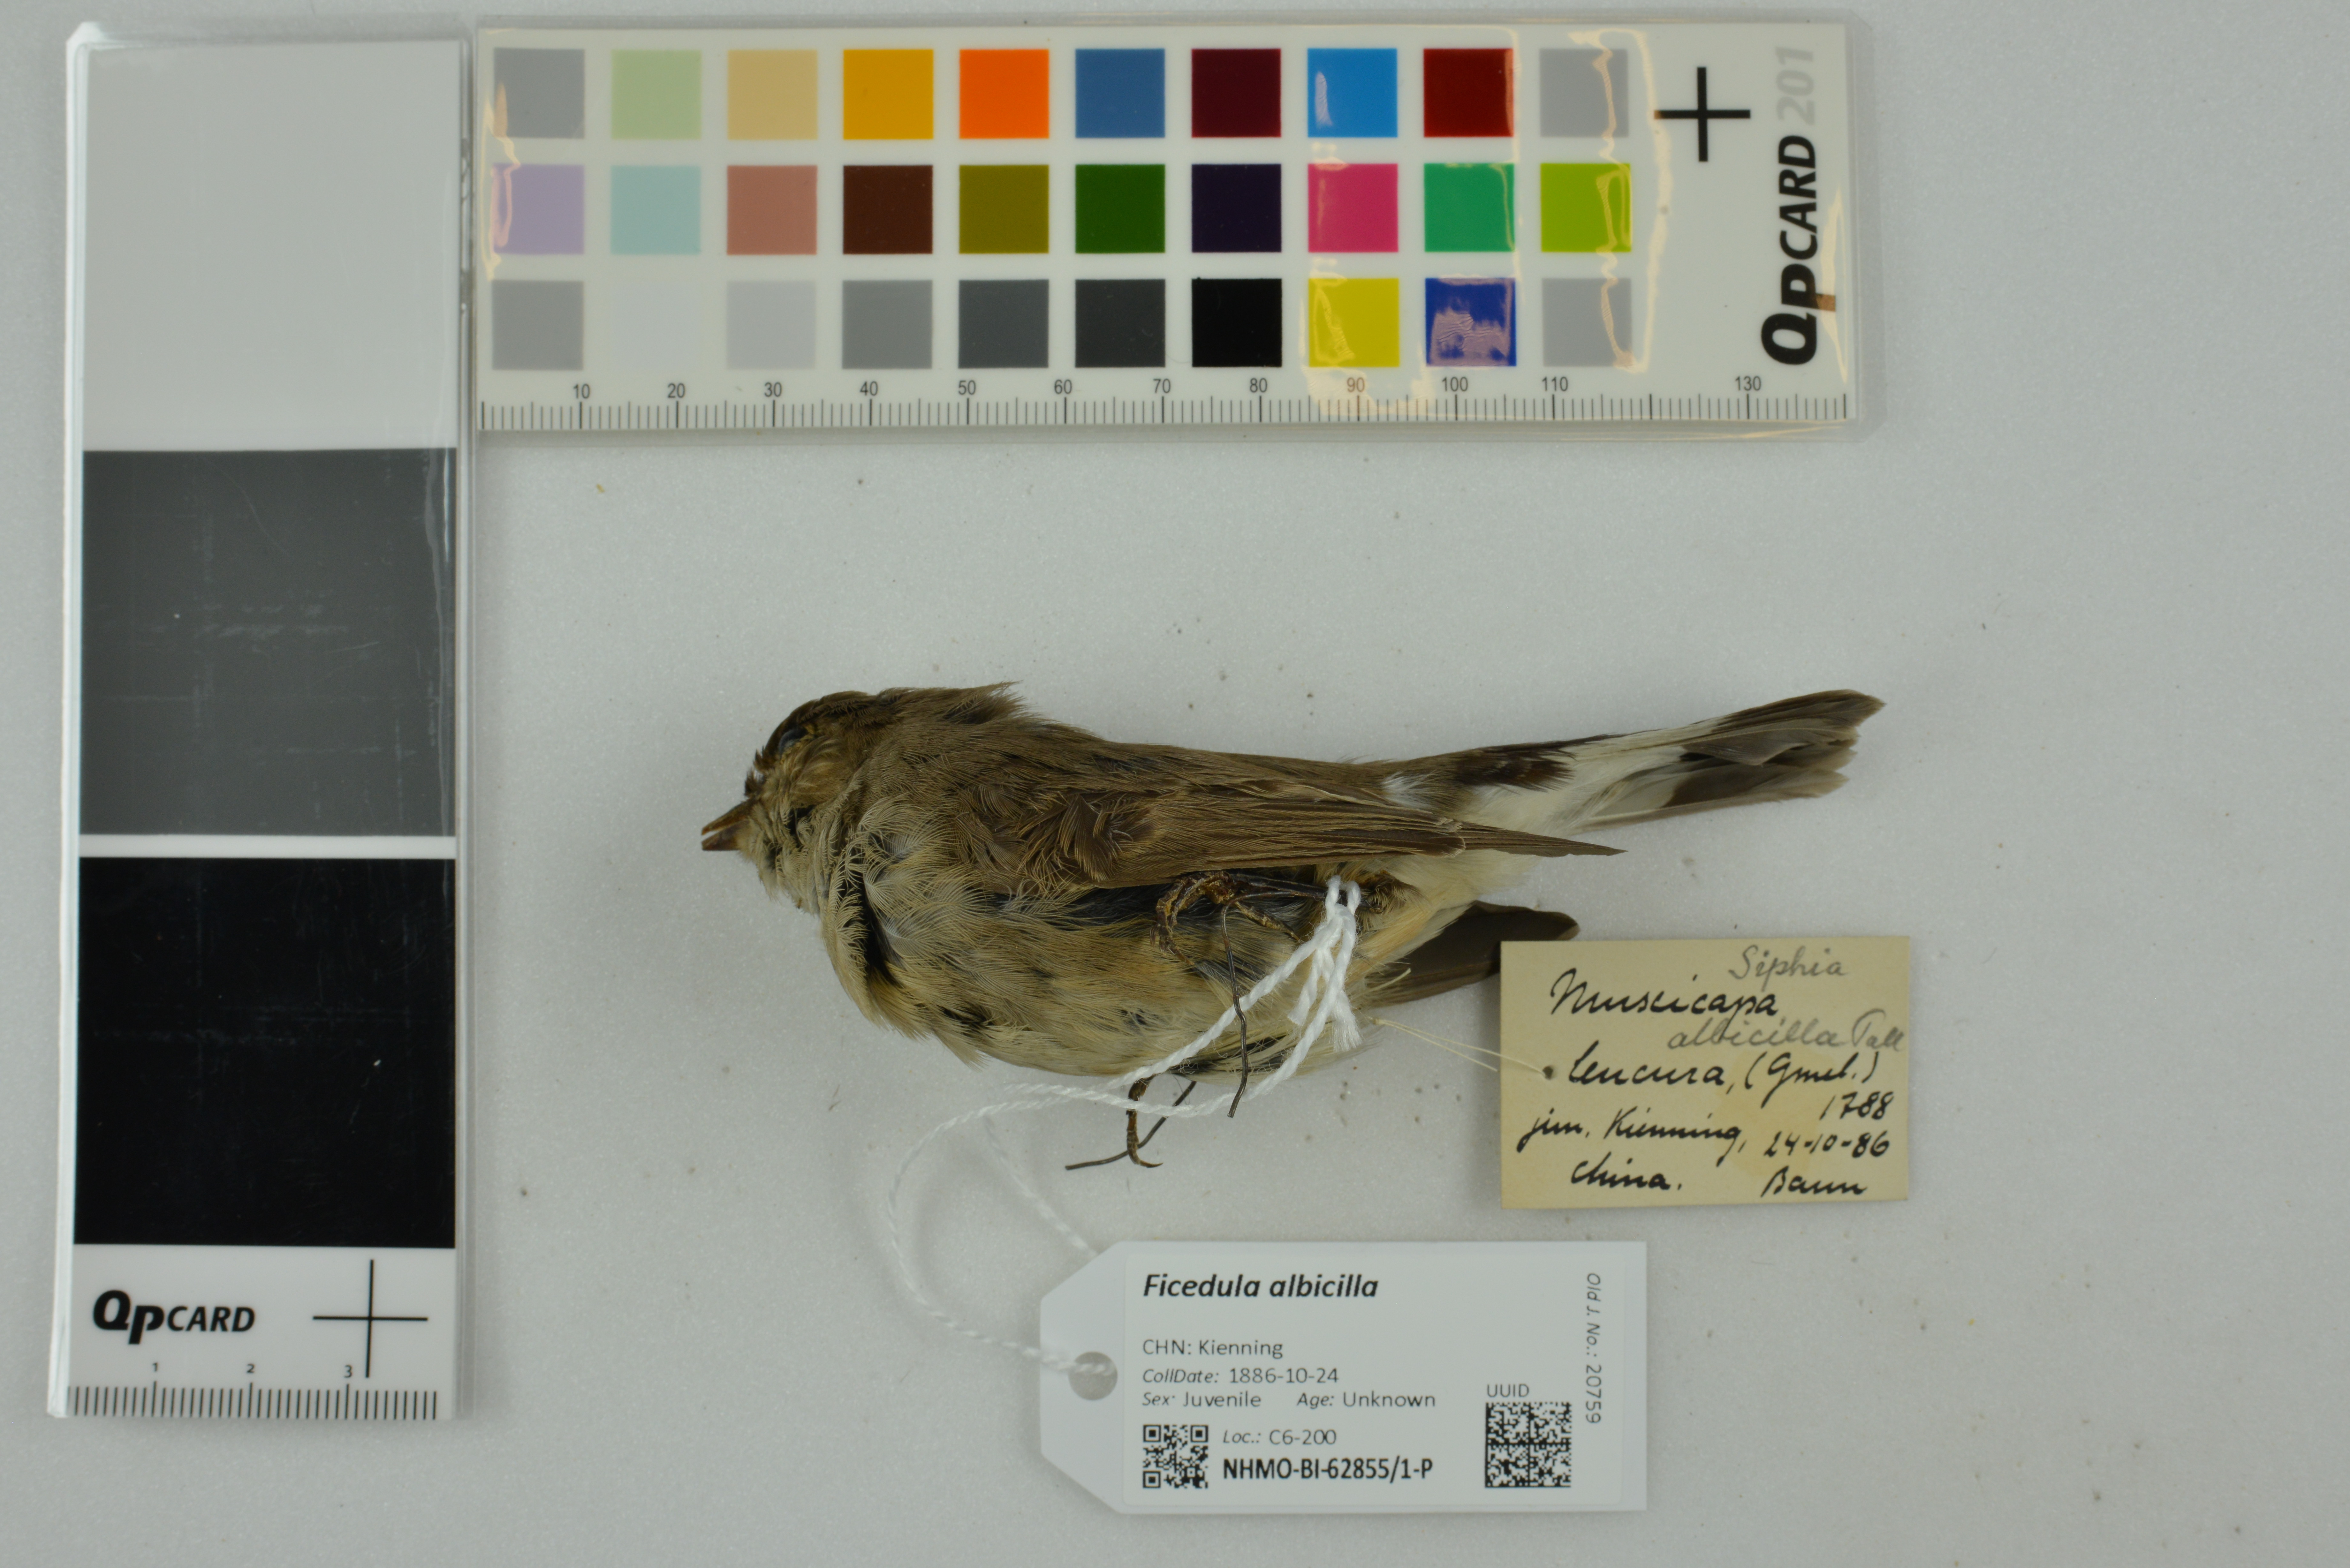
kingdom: Animalia
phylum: Chordata
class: Aves
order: Passeriformes
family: Muscicapidae
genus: Ficedula
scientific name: Ficedula albicilla
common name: Taiga flycatcher
